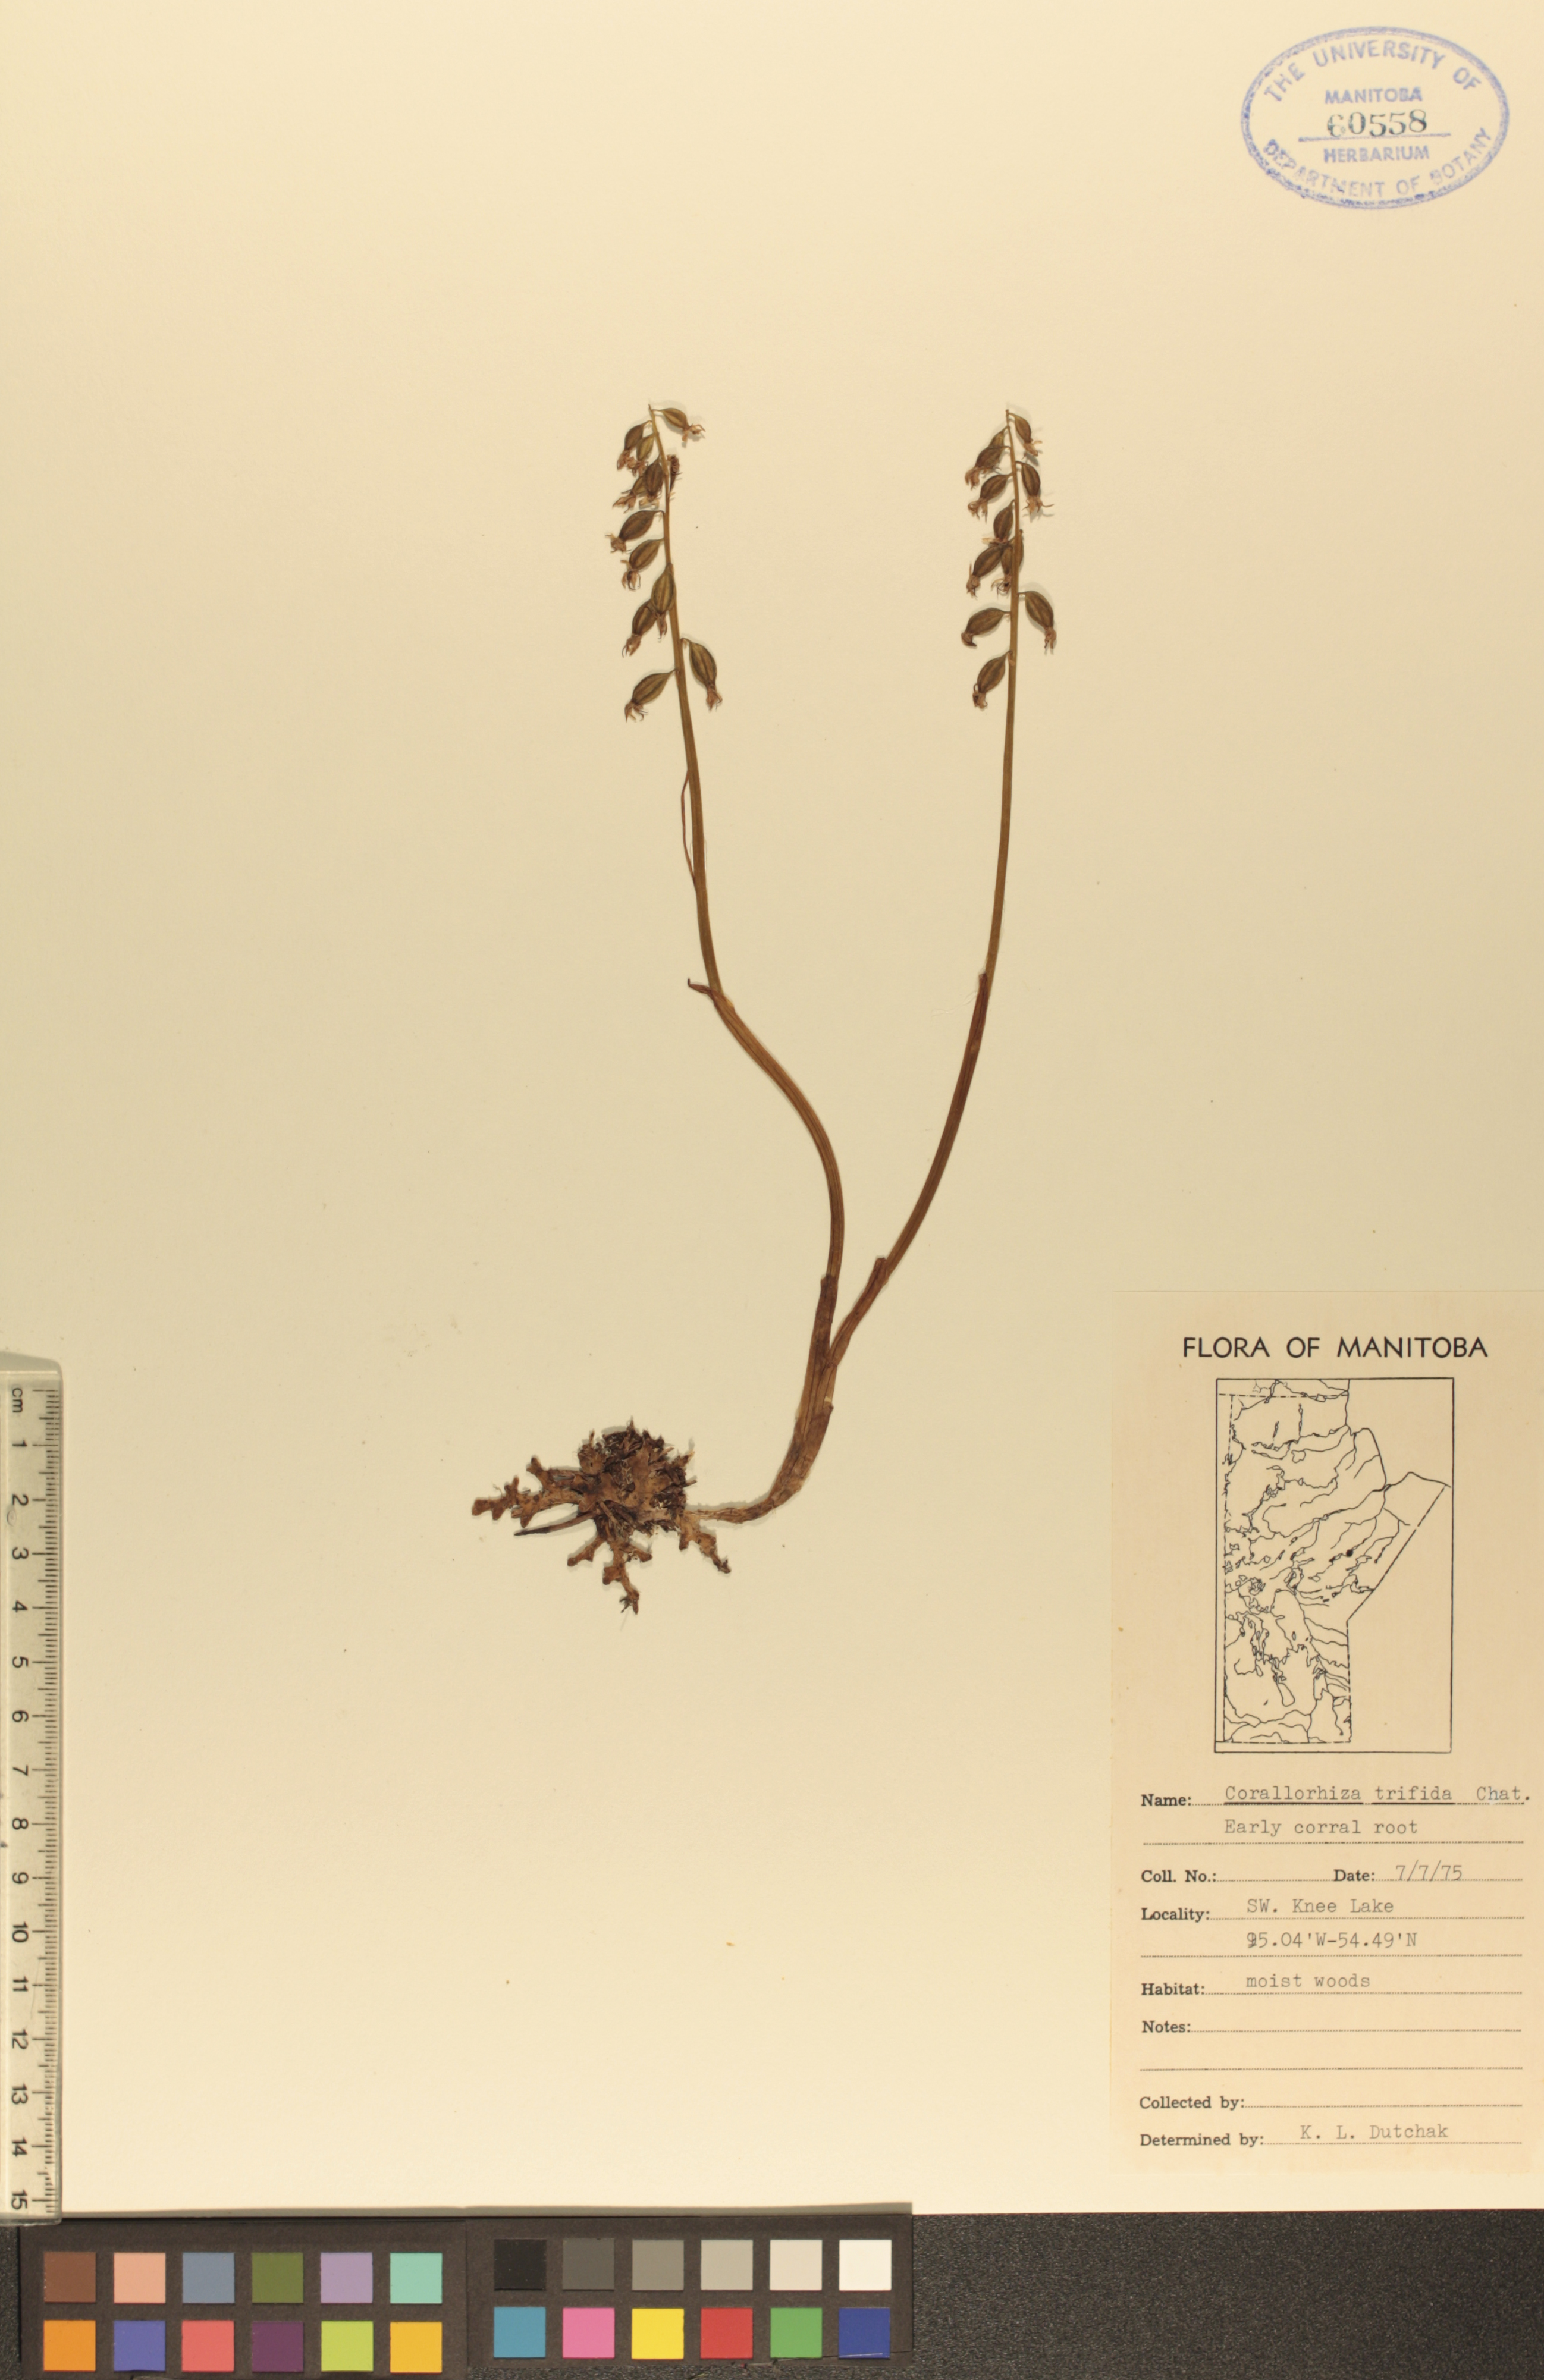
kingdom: Plantae
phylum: Tracheophyta
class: Liliopsida
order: Asparagales
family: Orchidaceae
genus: Corallorhiza
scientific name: Corallorhiza trifida
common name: Yellow coralroot
